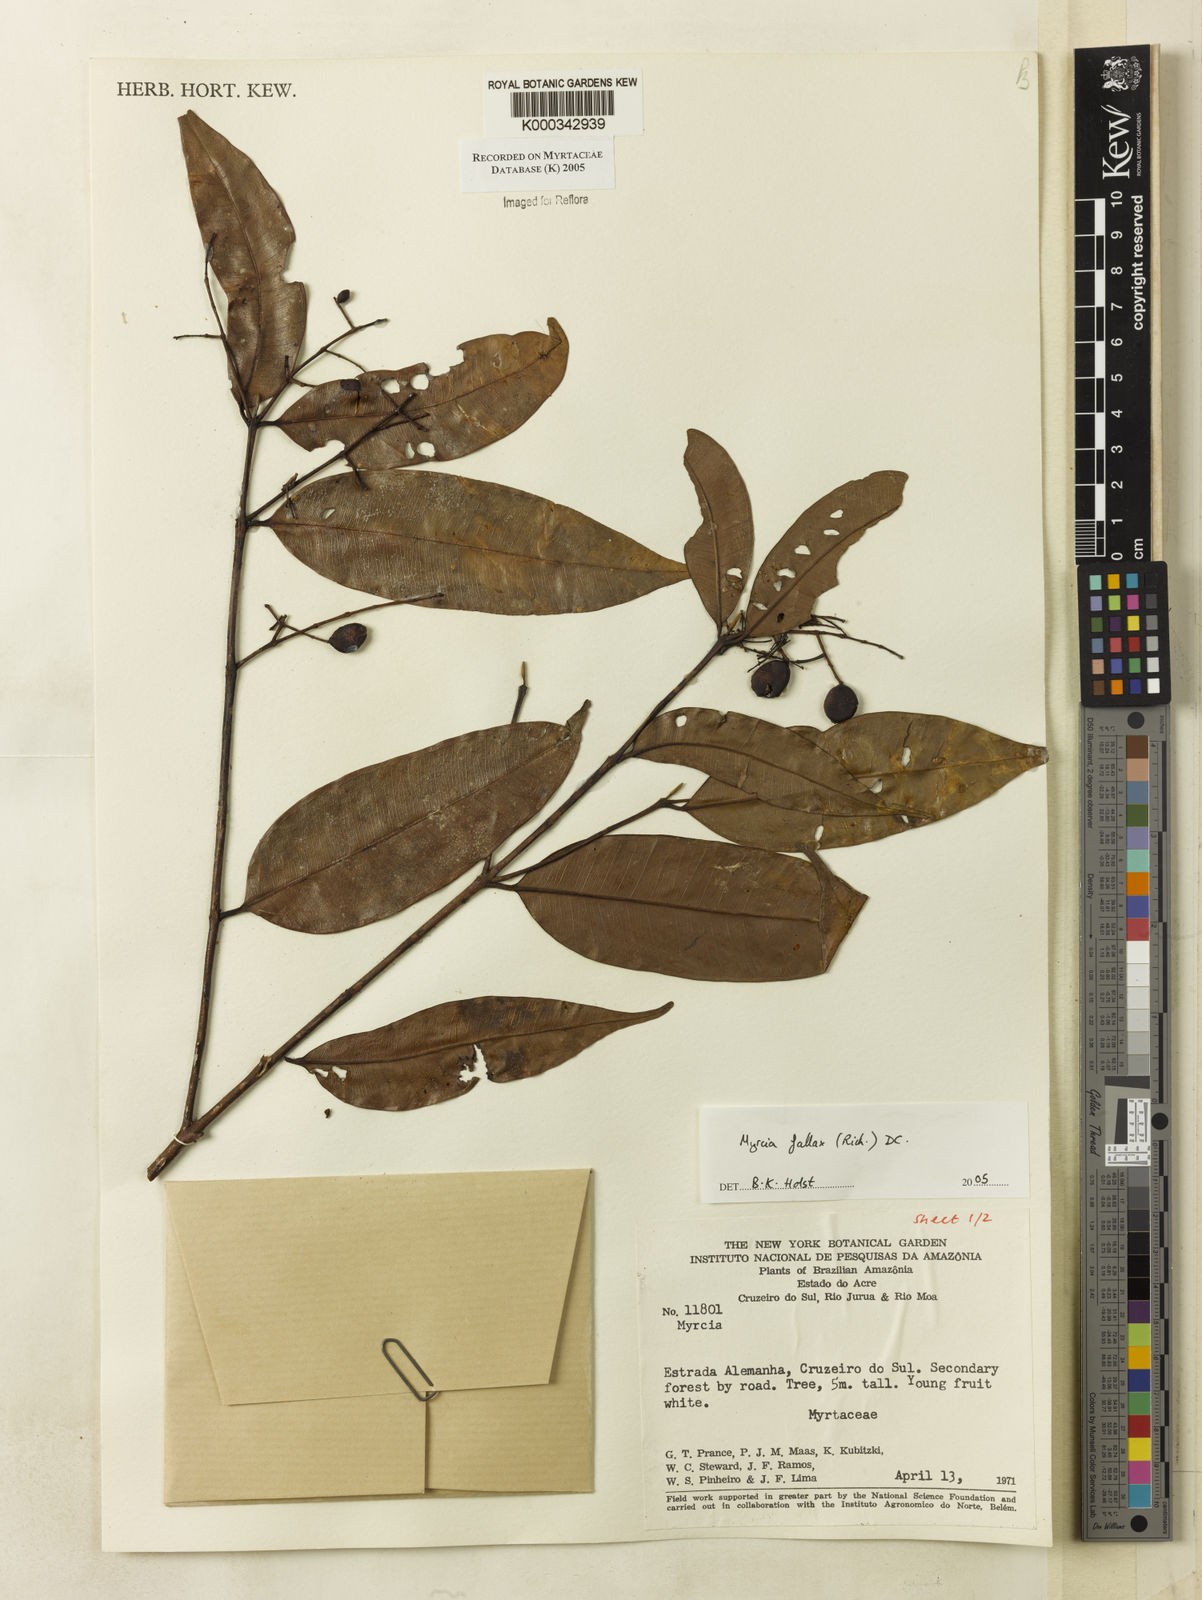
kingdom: Plantae
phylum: Tracheophyta
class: Magnoliopsida
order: Myrtales
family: Myrtaceae
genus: Myrcia
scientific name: Myrcia splendens
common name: Surinam cherry
